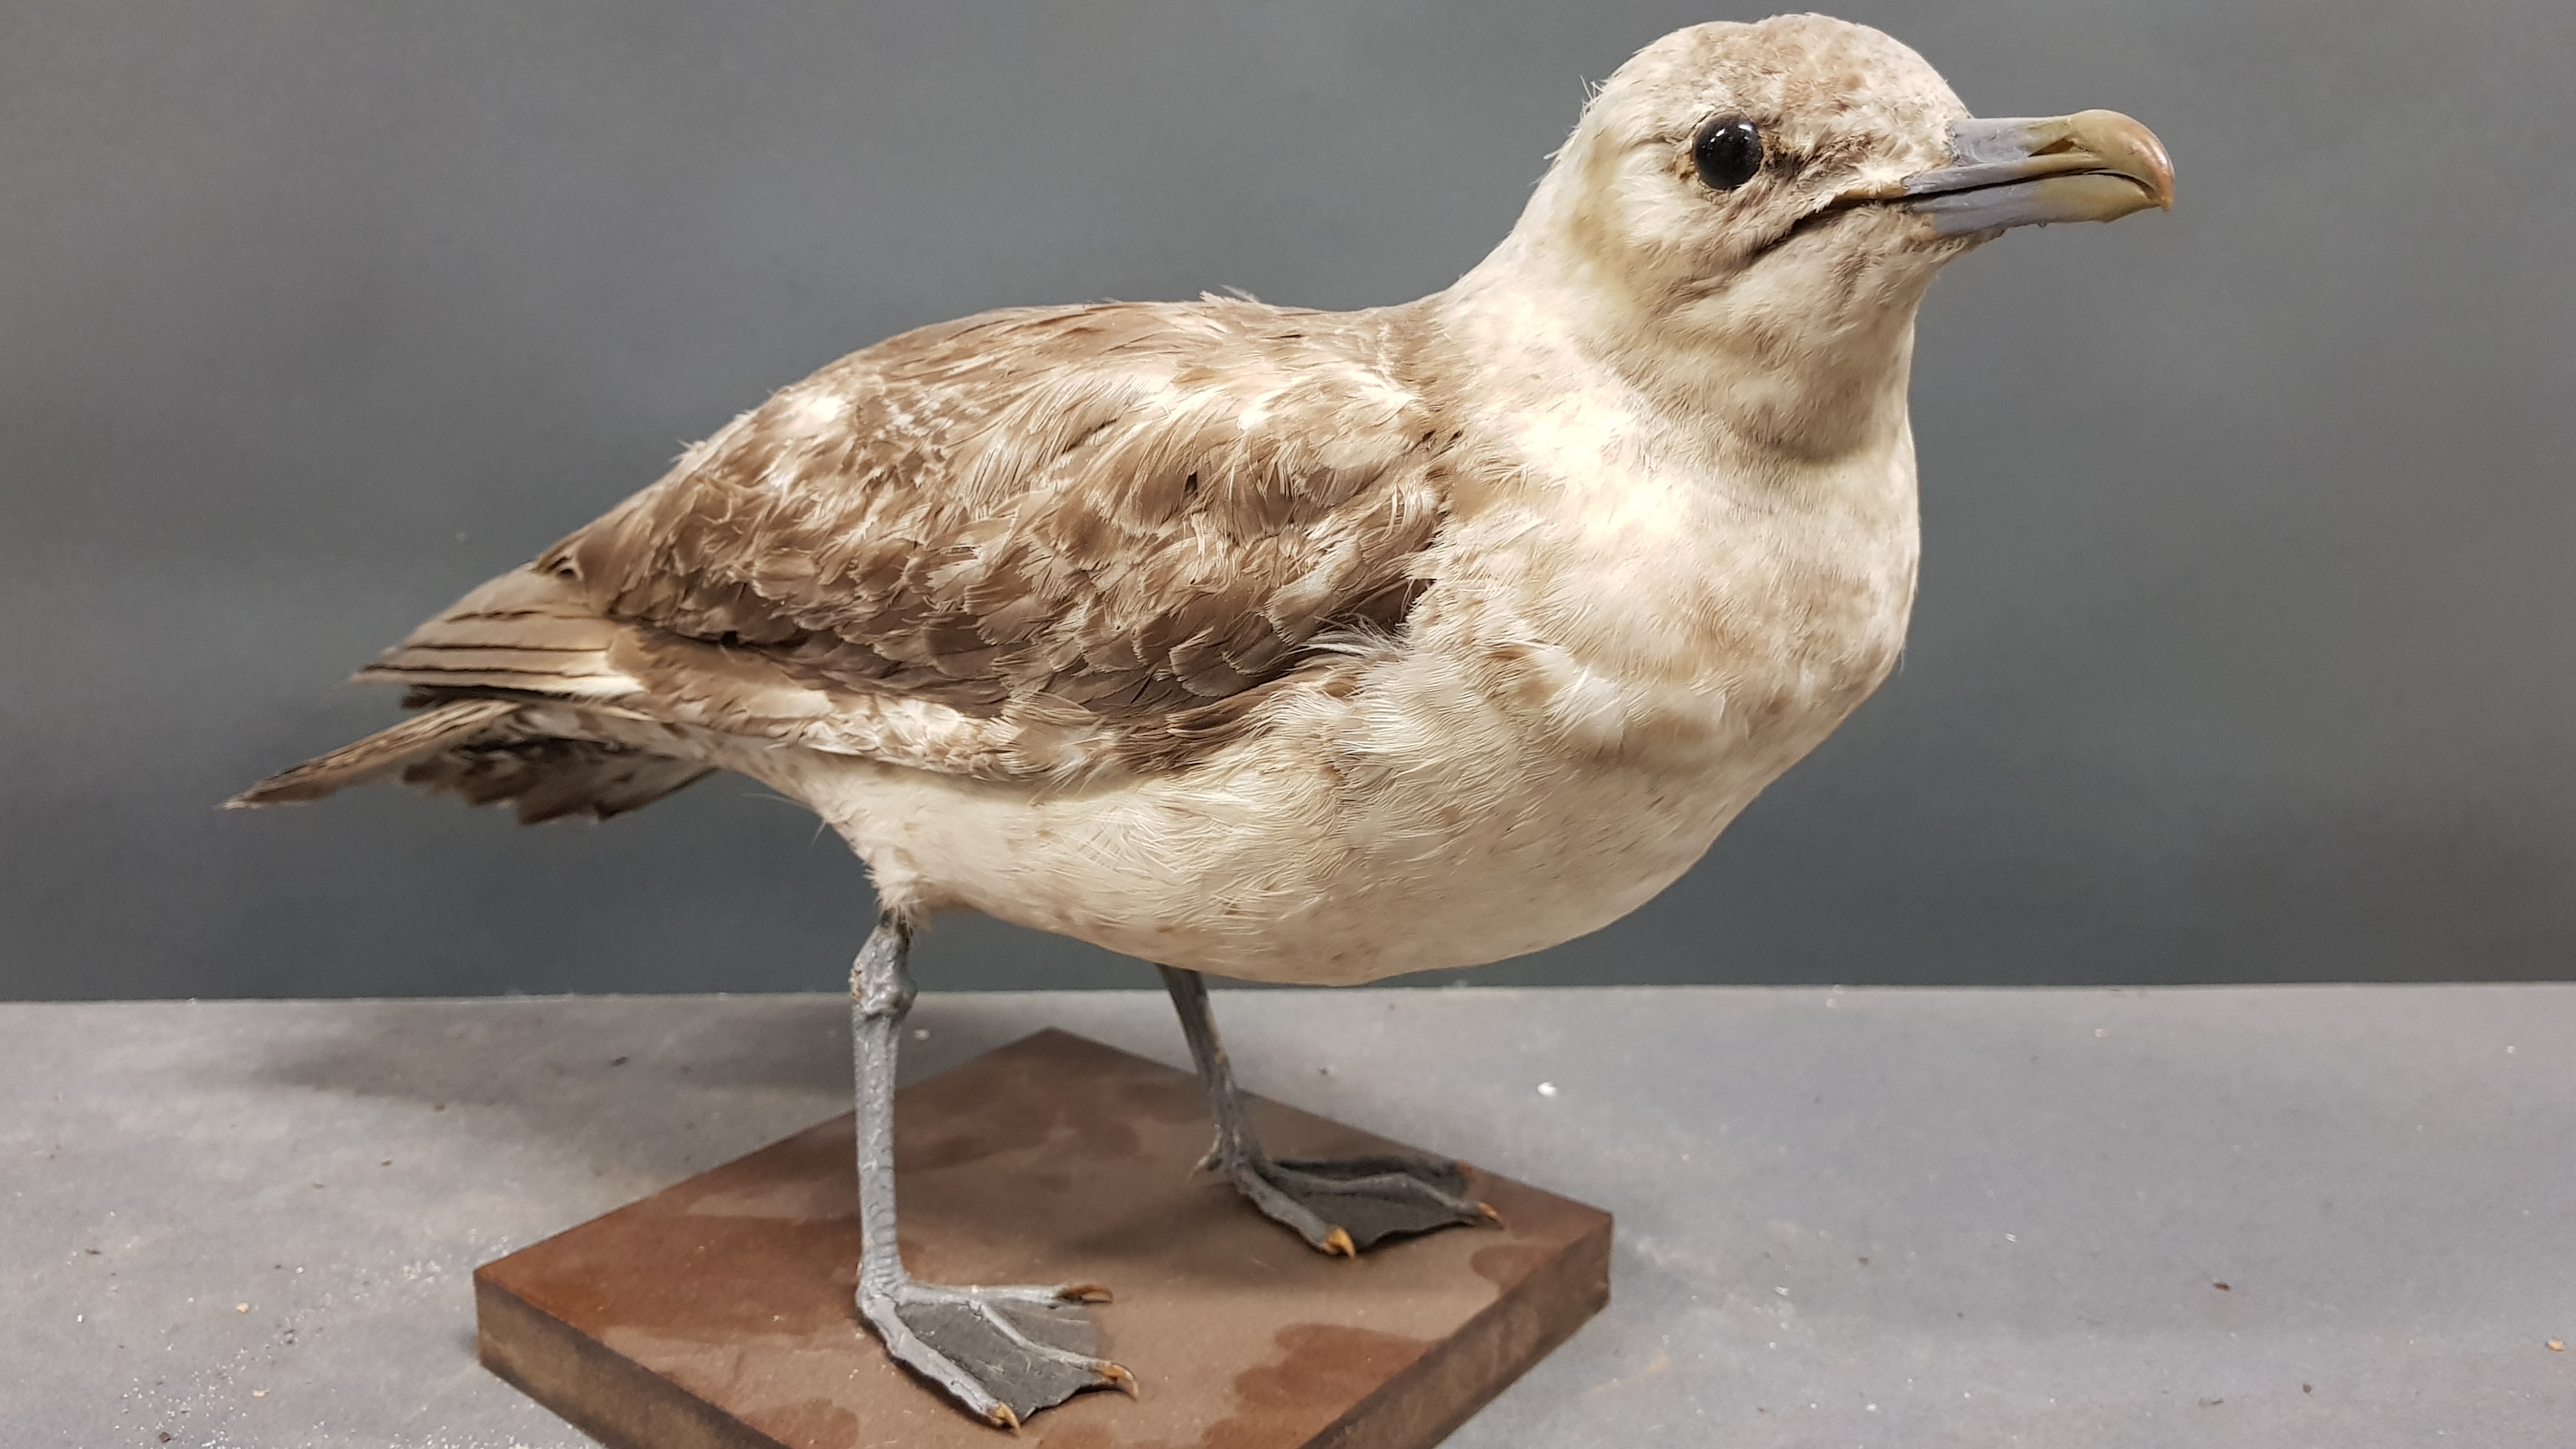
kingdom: Animalia
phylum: Chordata
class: Aves
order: Charadriiformes
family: Laridae
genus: Larus
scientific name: Larus canus
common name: Mew gull
